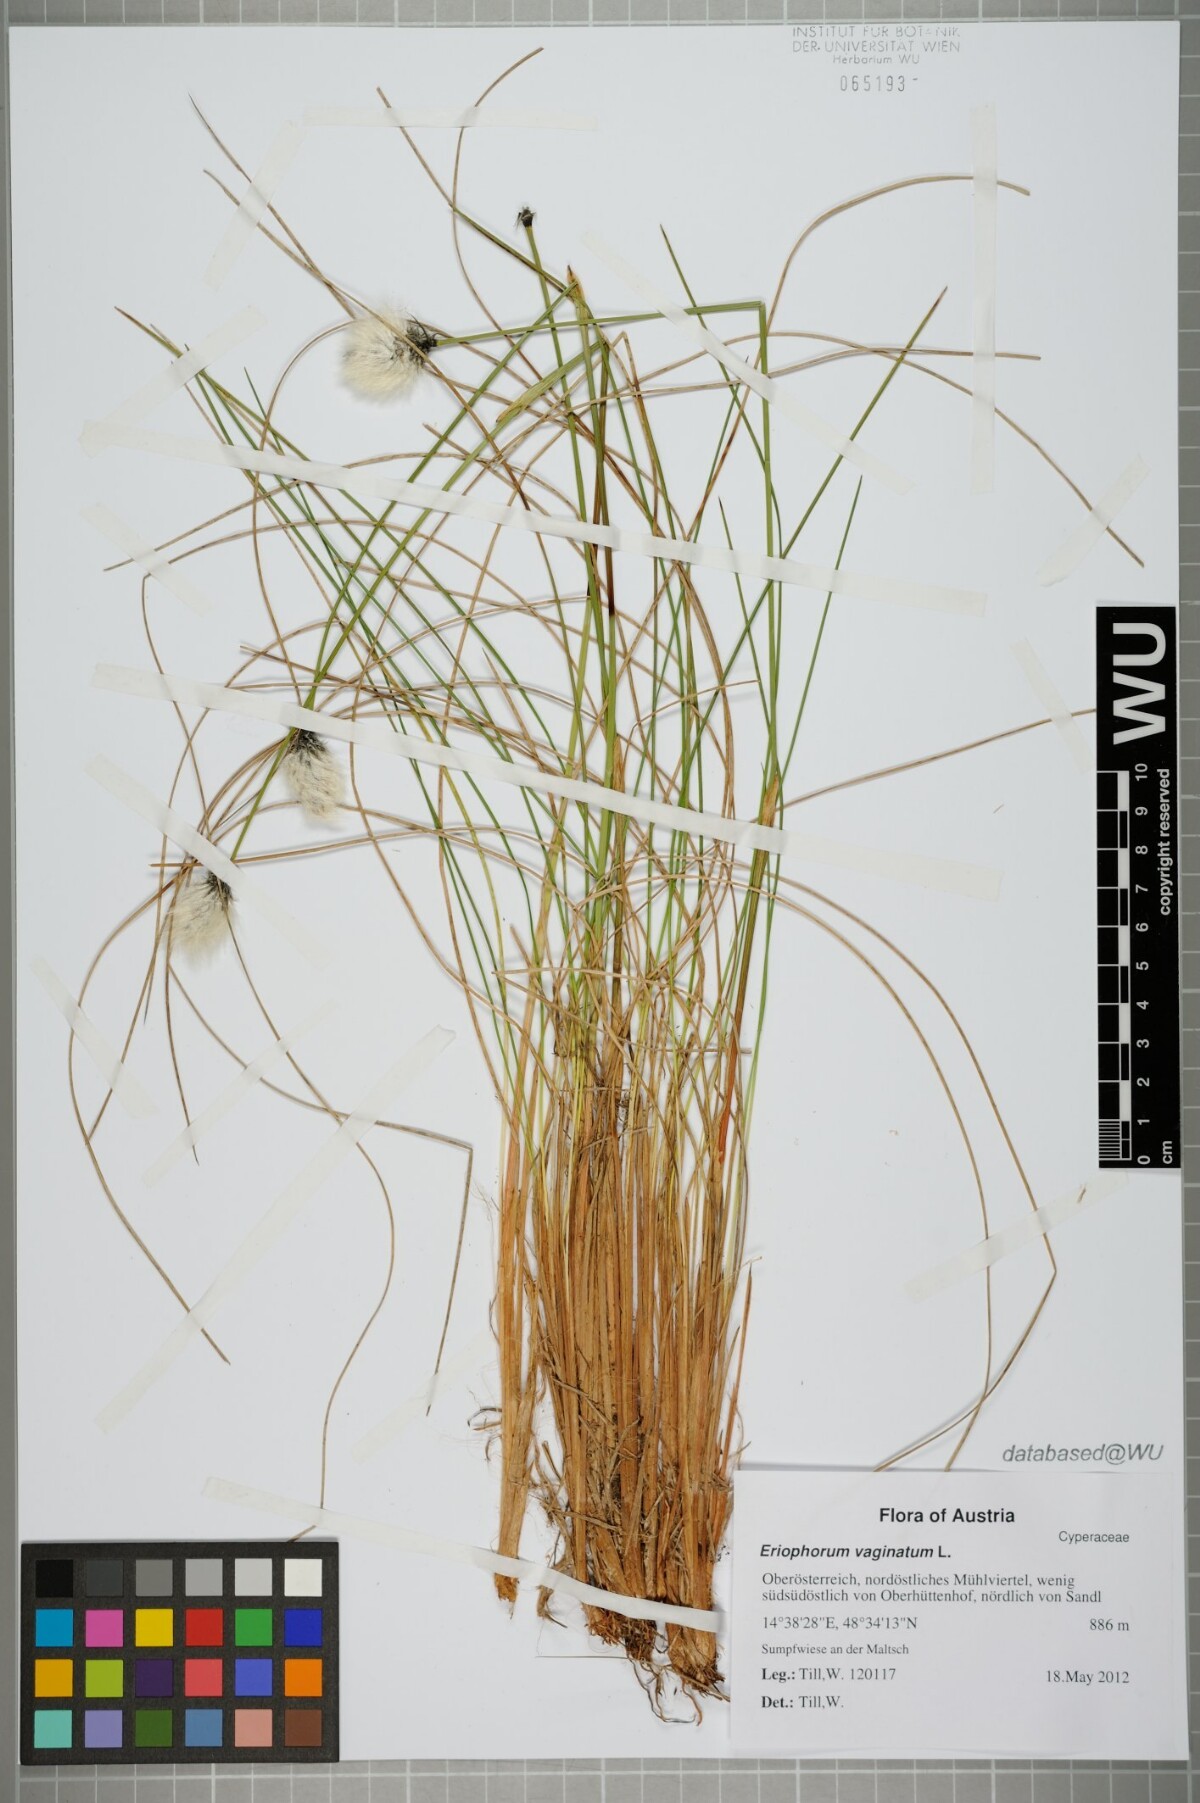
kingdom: Plantae
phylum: Tracheophyta
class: Liliopsida
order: Poales
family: Cyperaceae
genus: Eriophorum
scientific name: Eriophorum vaginatum
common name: Hare's-tail cottongrass
